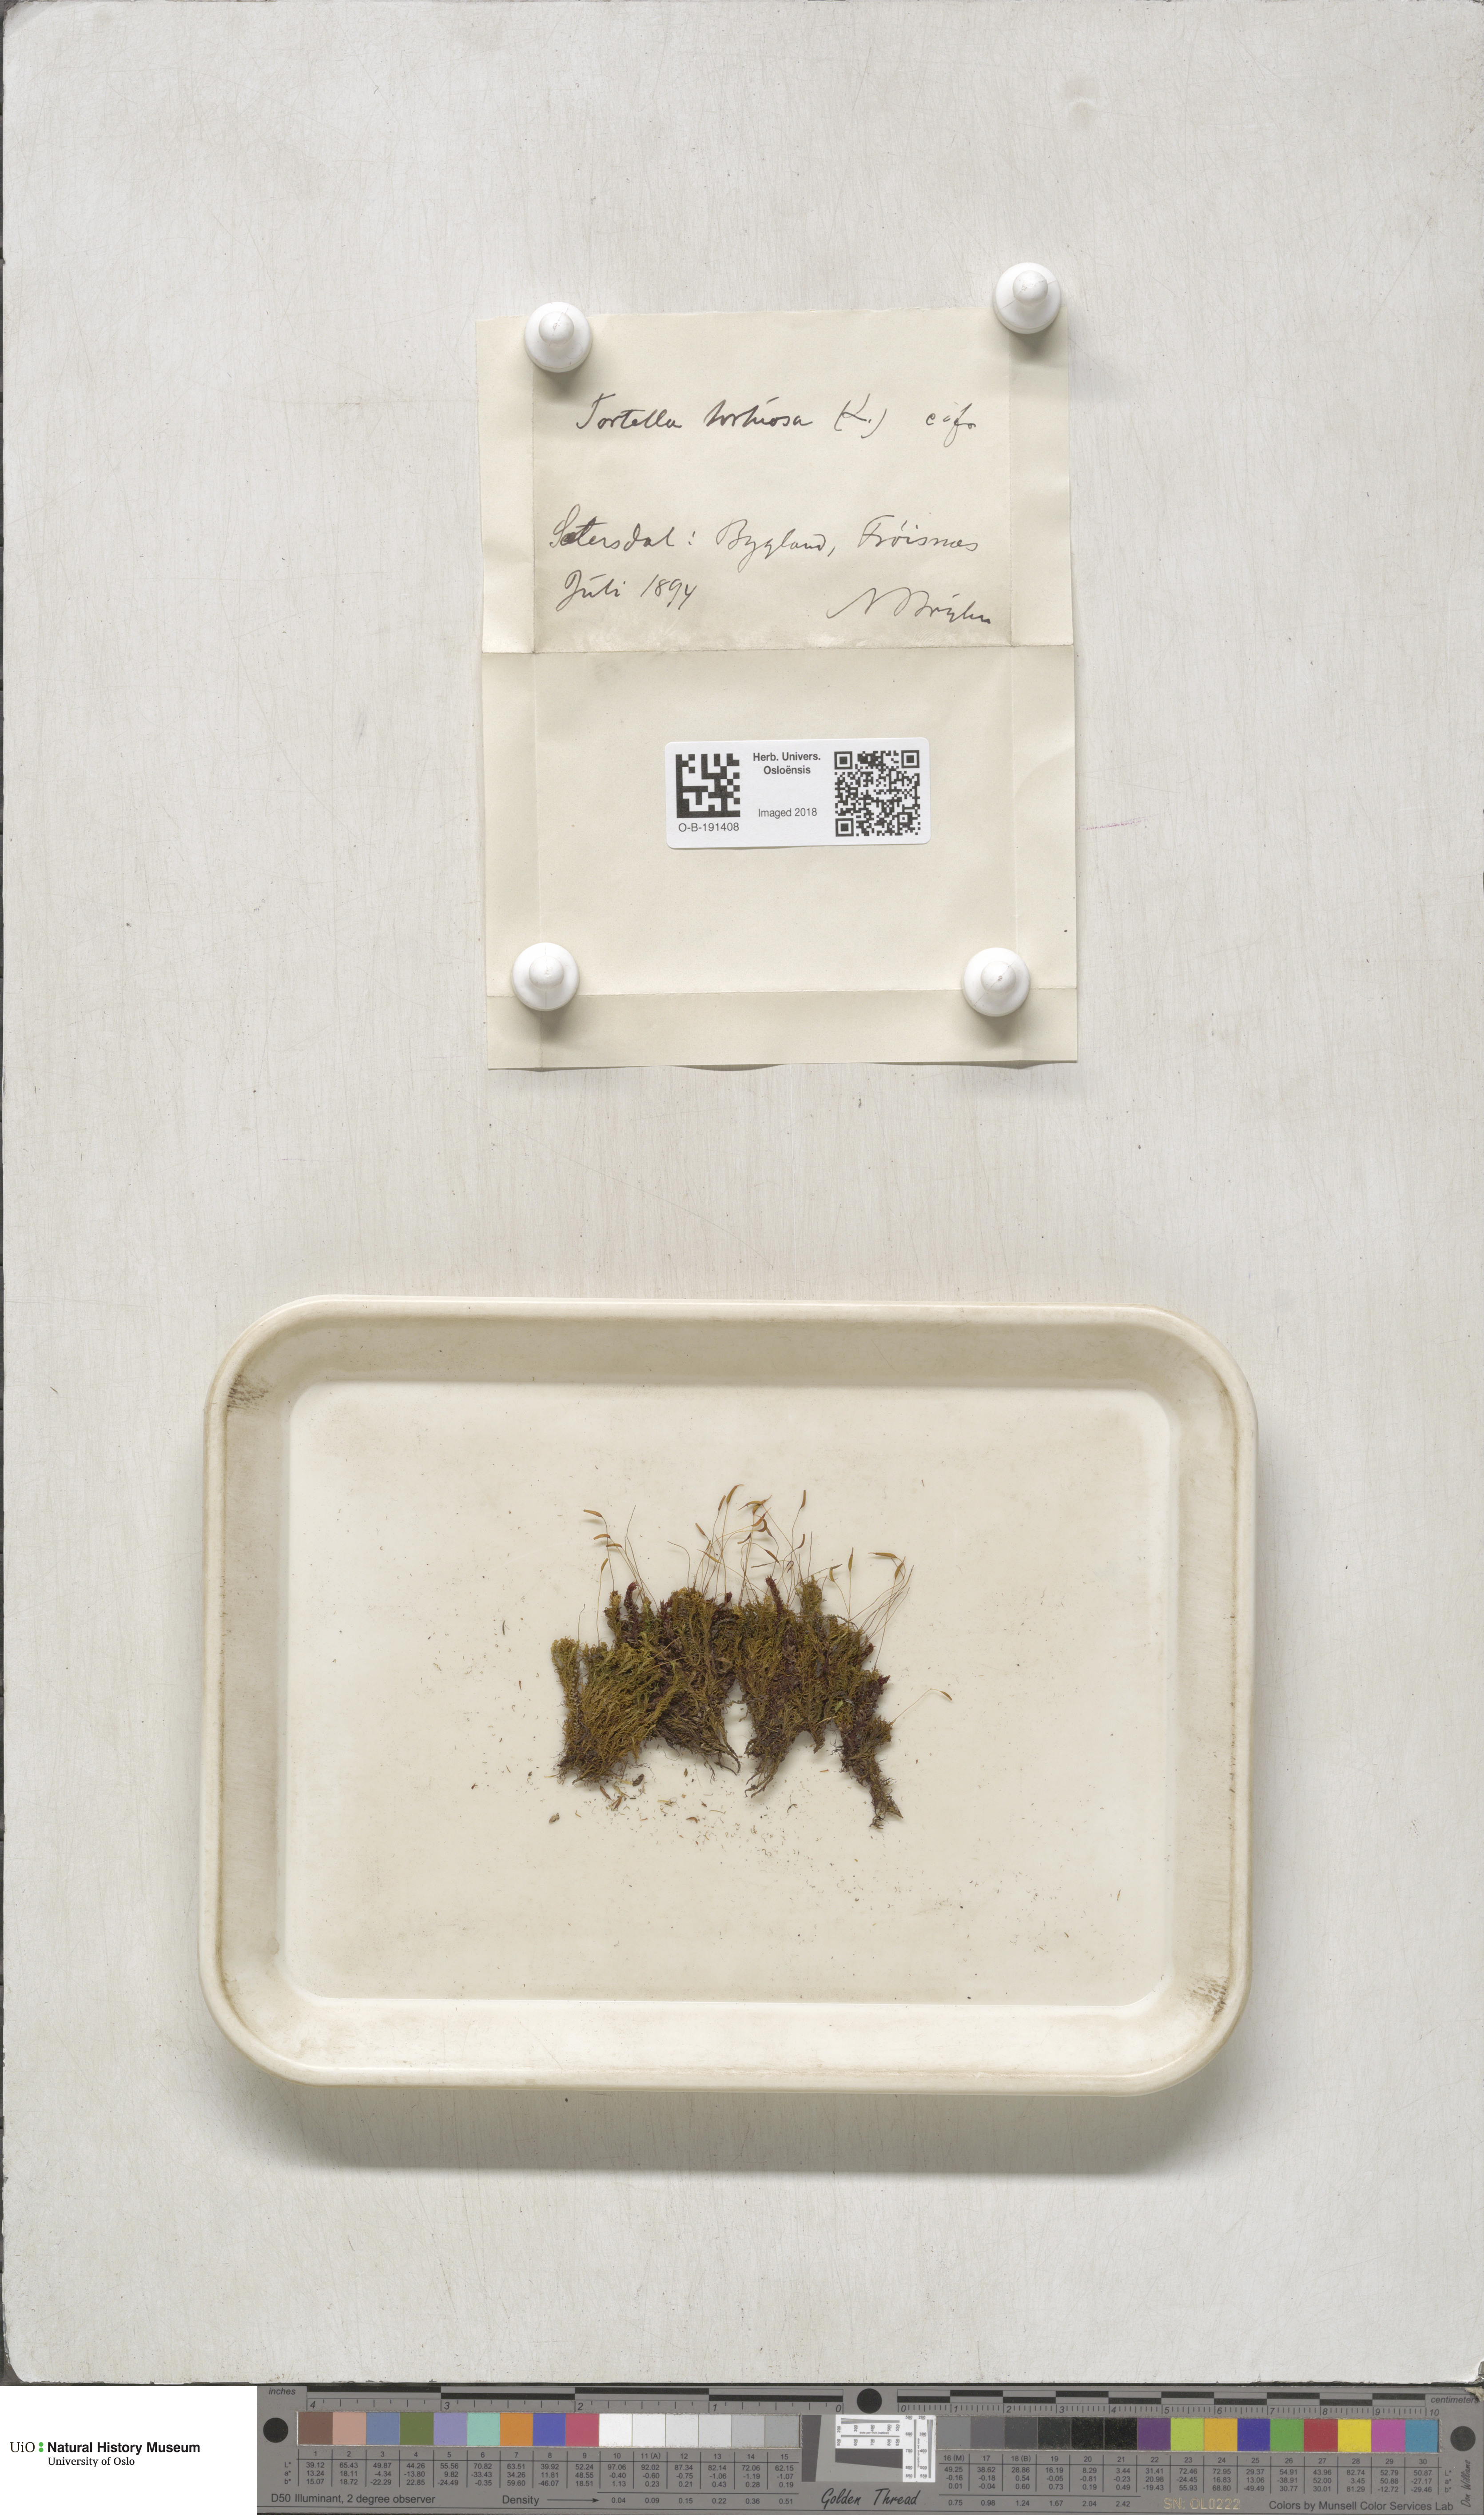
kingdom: Plantae
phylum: Bryophyta
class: Bryopsida
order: Pottiales
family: Pottiaceae
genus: Tortella
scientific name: Tortella tortuosa
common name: Frizzled crisp moss
